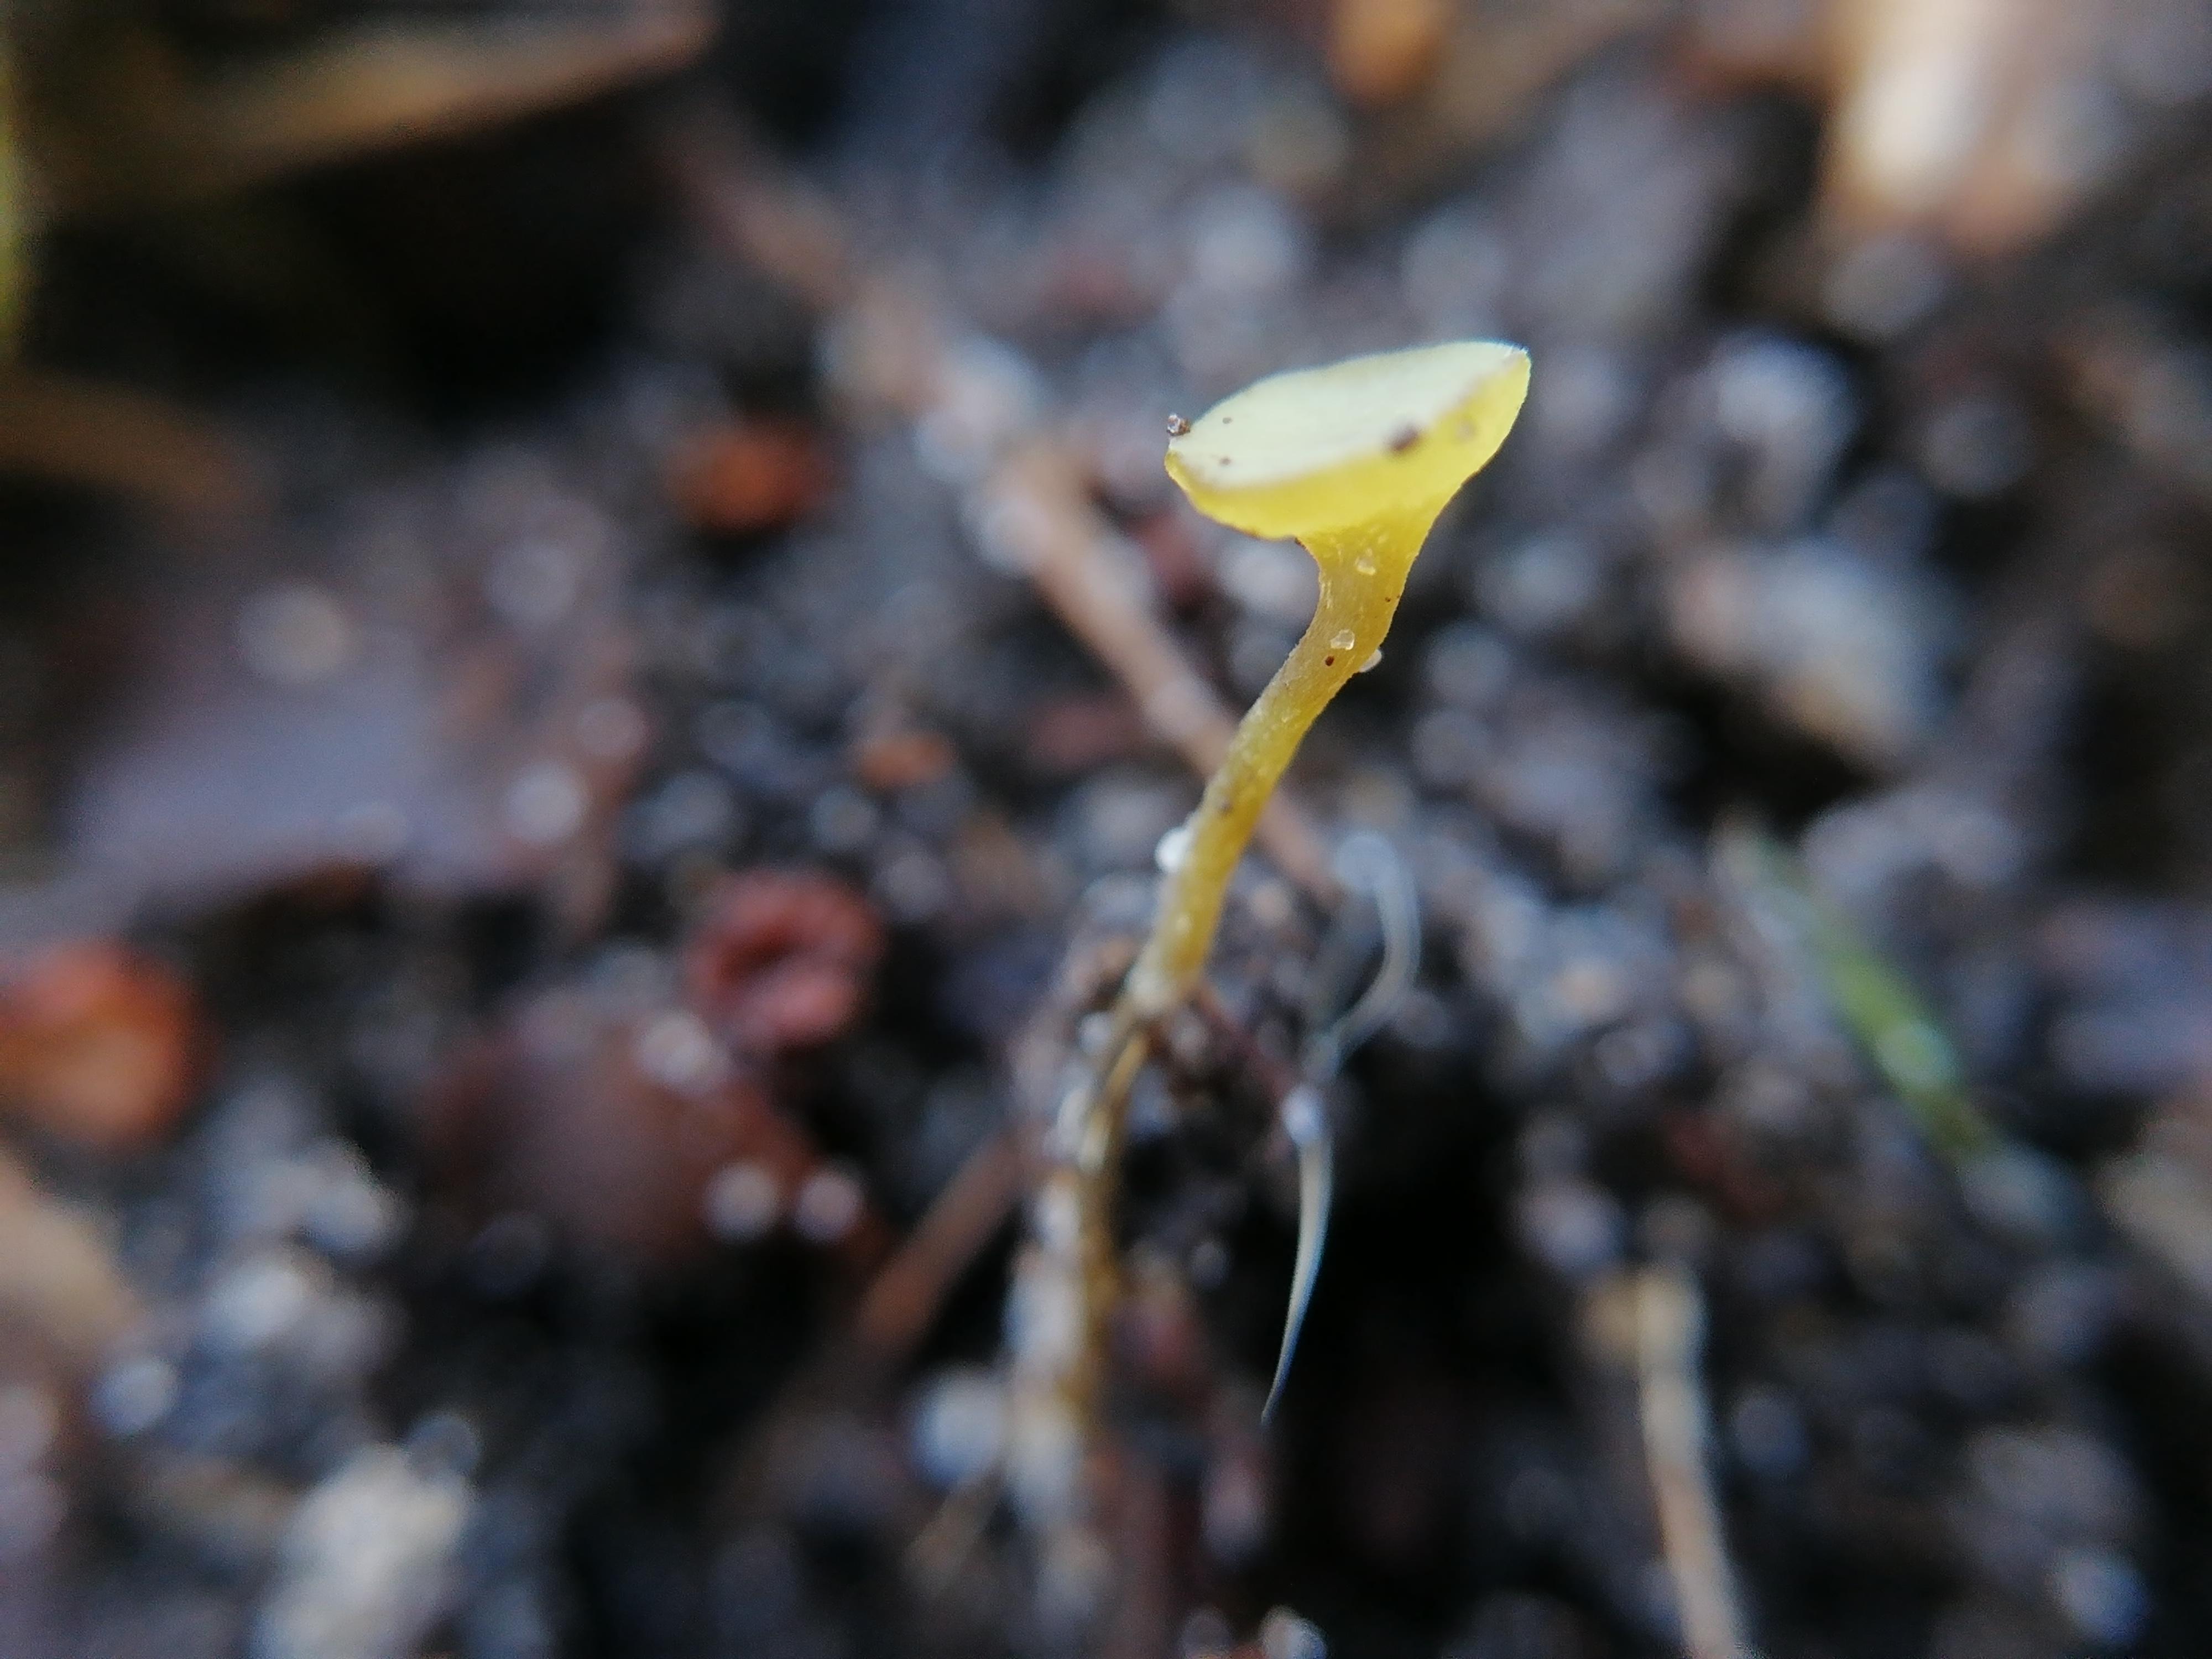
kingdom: Fungi
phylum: Ascomycota
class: Leotiomycetes
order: Helotiales
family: Rutstroemiaceae
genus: Lanzia
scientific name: Lanzia luteovirescens
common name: olivengul brunskive
